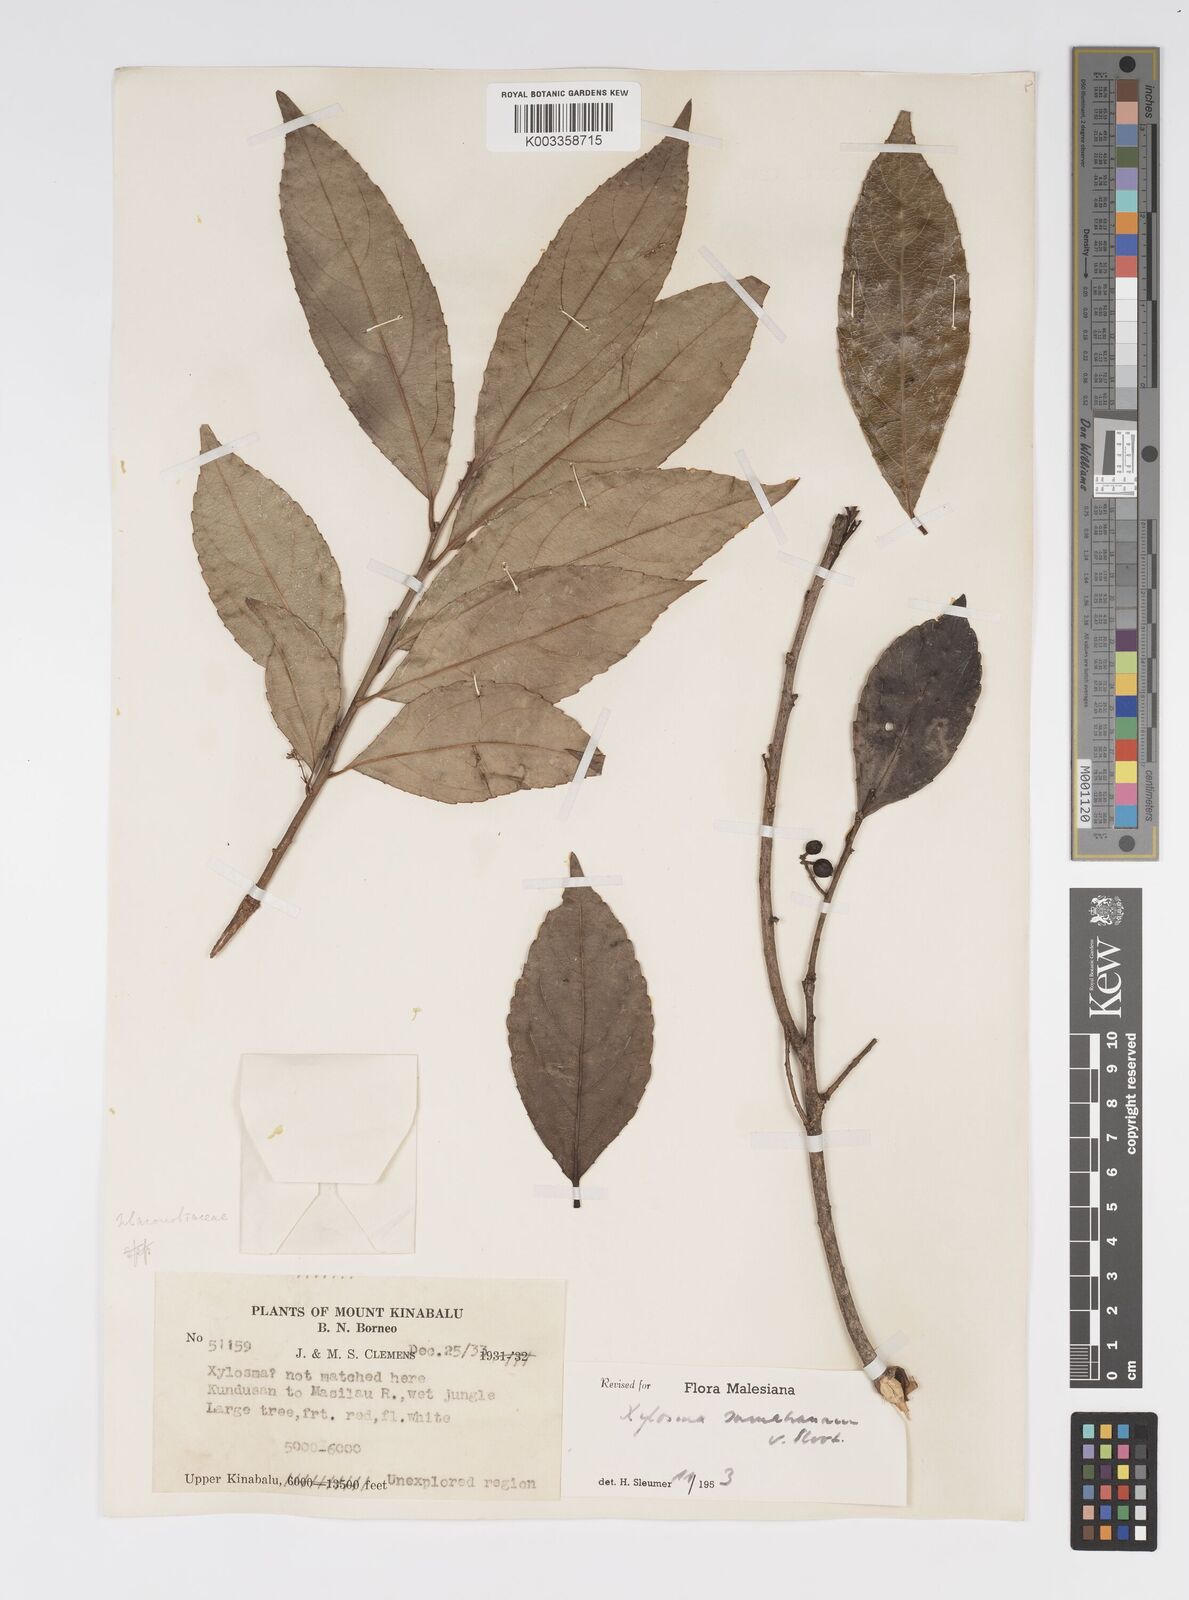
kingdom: Plantae
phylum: Tracheophyta
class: Magnoliopsida
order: Malpighiales
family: Salicaceae
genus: Xylosma
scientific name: Xylosma sumatrana
